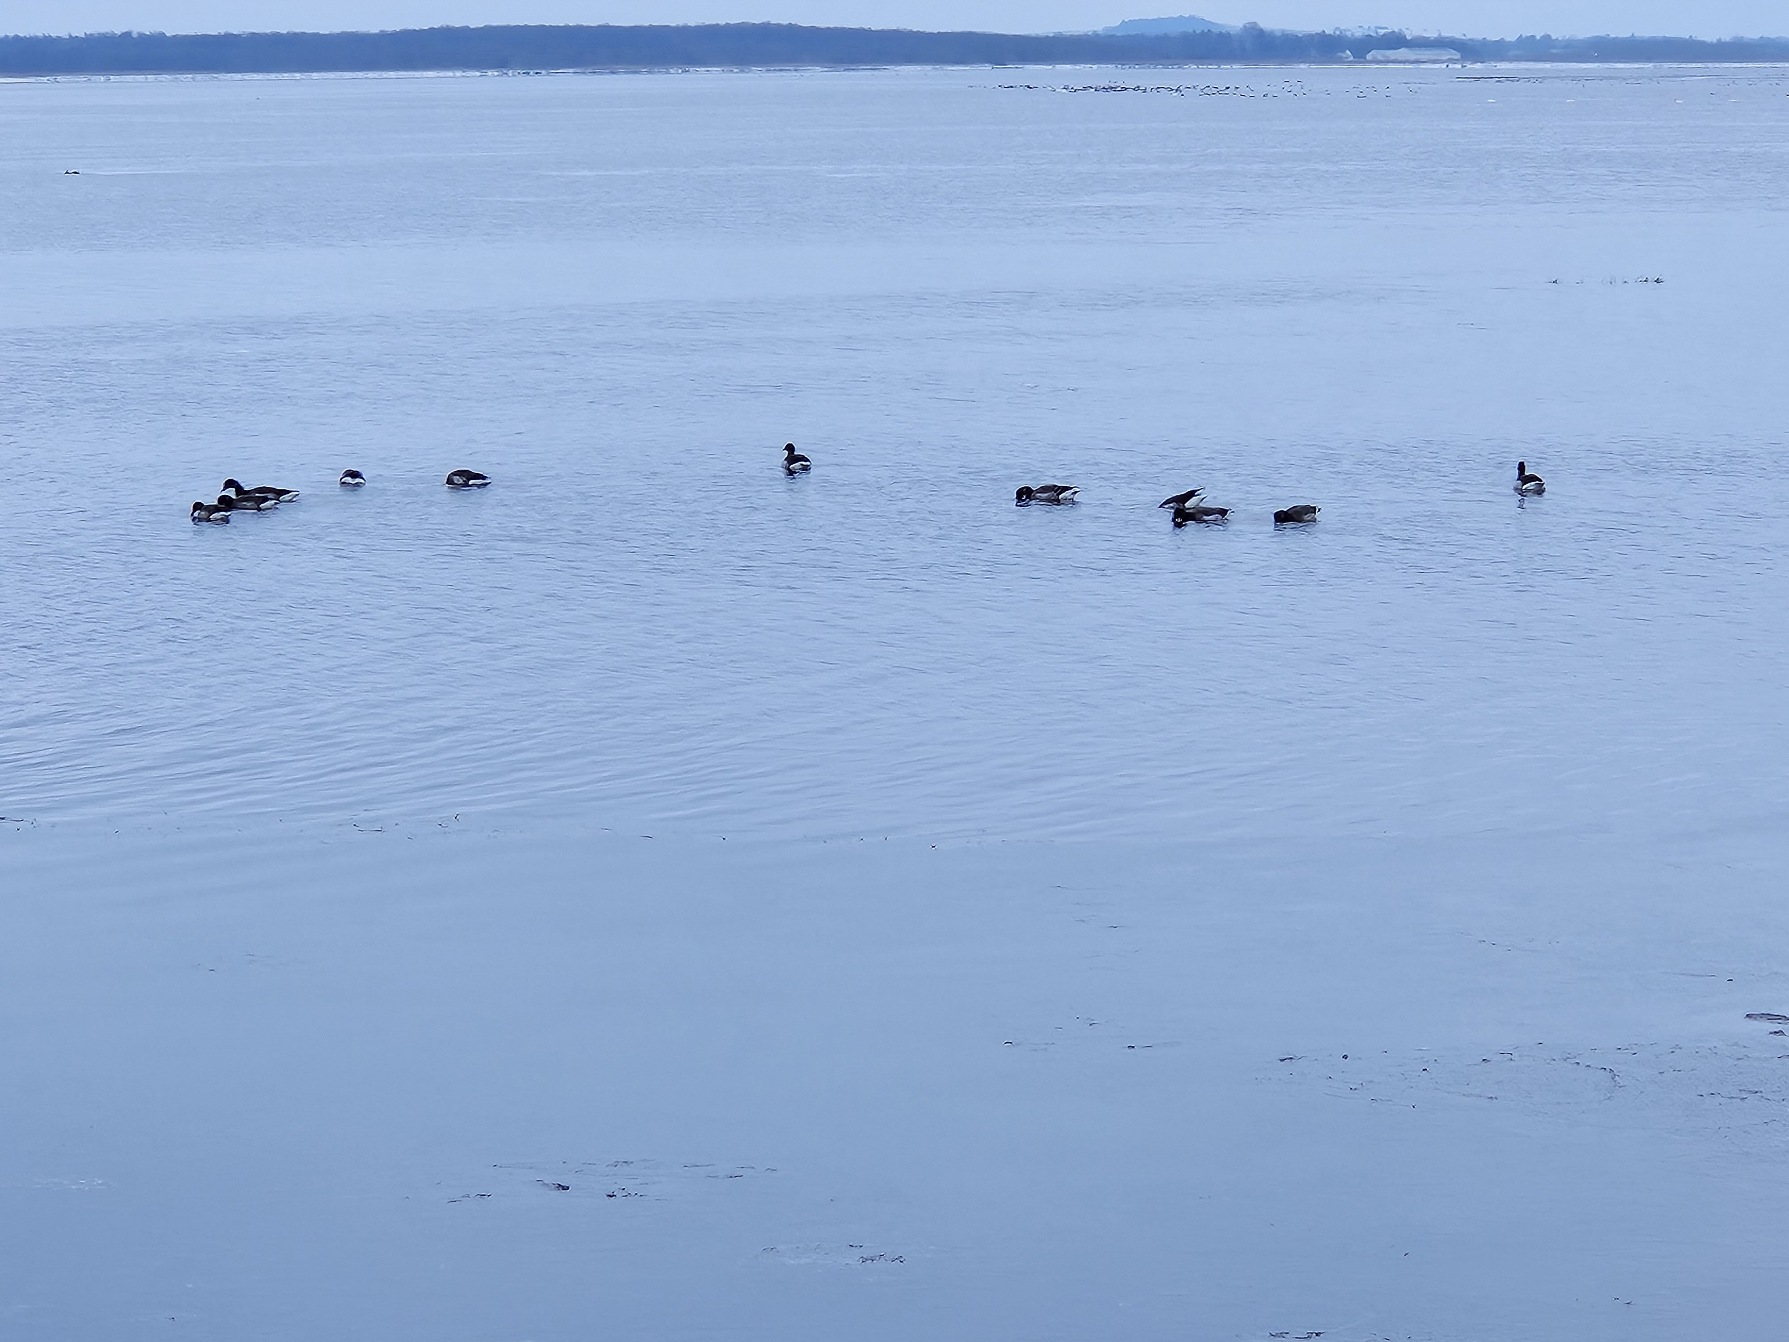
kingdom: Animalia
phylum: Chordata
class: Aves
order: Anseriformes
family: Anatidae
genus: Branta
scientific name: Branta bernicla
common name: Lysbuget knortegås
